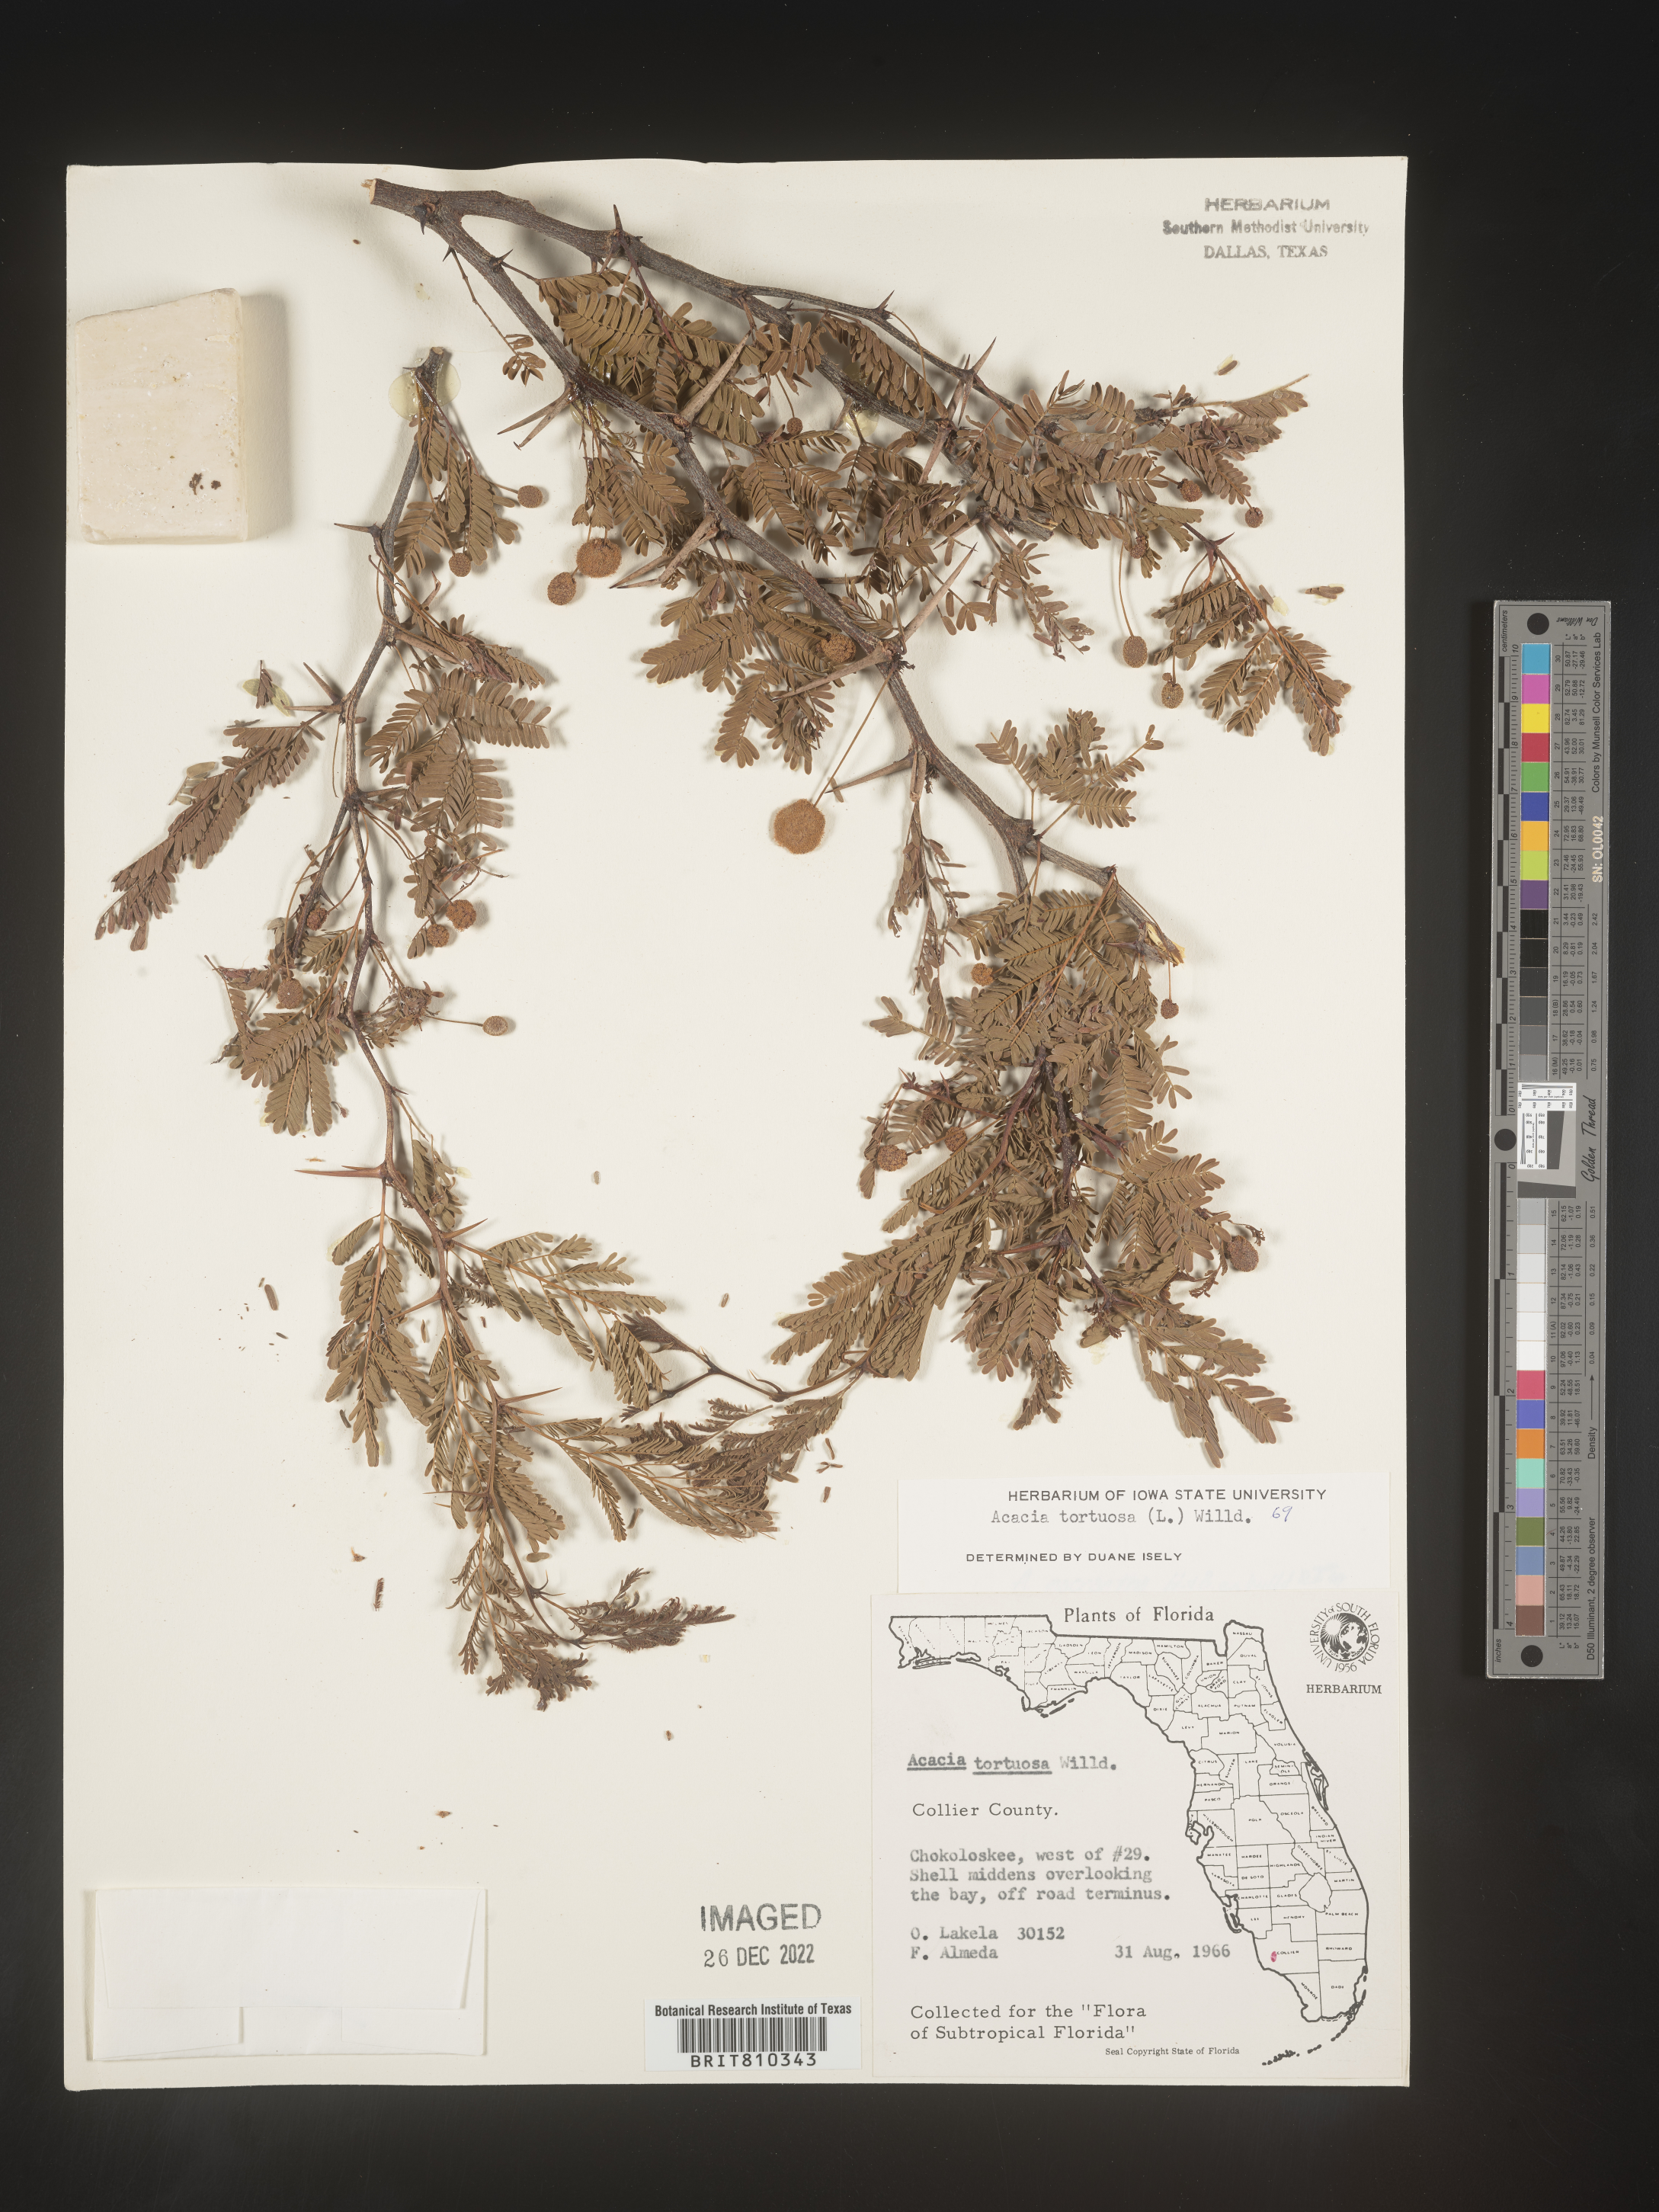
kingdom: Plantae
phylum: Tracheophyta
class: Magnoliopsida
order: Fabales
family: Fabaceae
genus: Acacia
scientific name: Acacia
